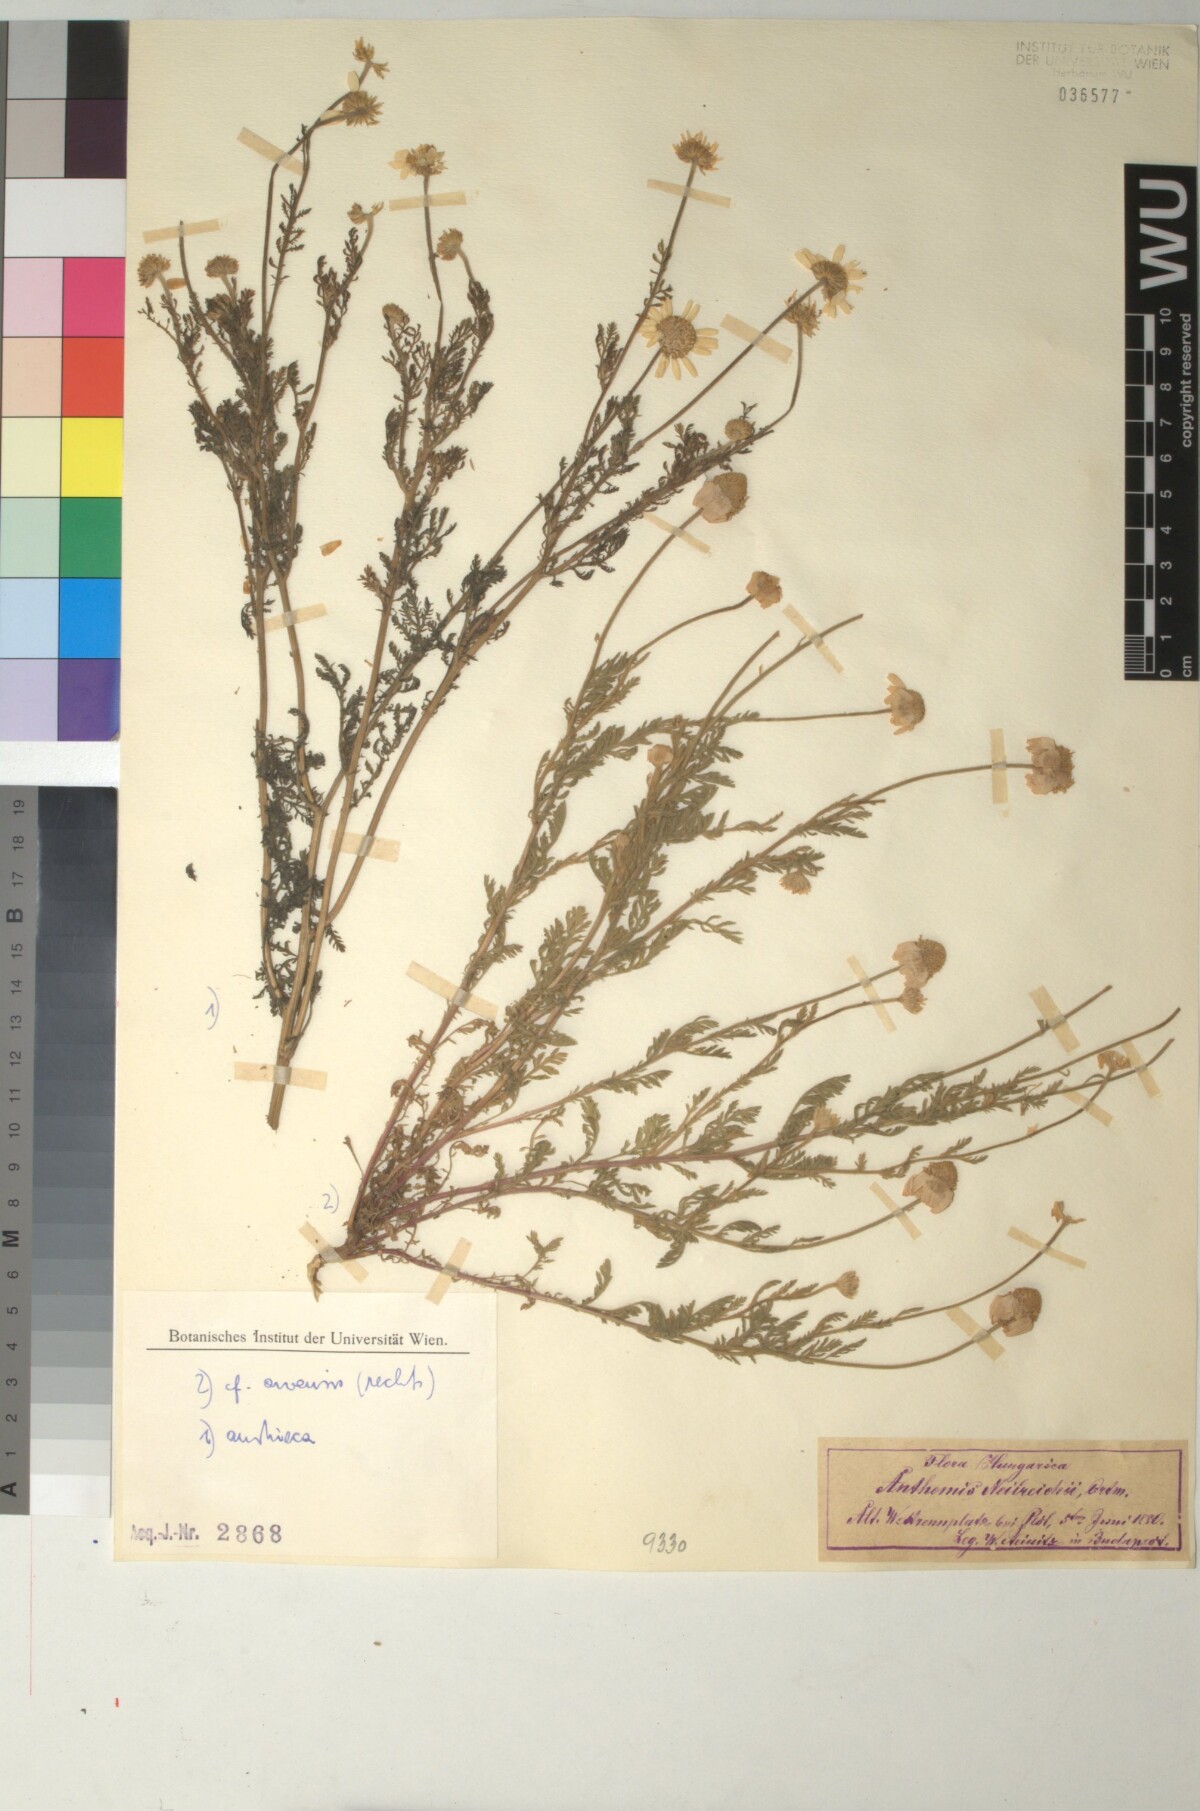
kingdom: Plantae
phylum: Tracheophyta
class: Magnoliopsida
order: Asterales
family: Asteraceae
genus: Anthemis
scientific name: Anthemis ruthenica
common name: Eastern chamomile
